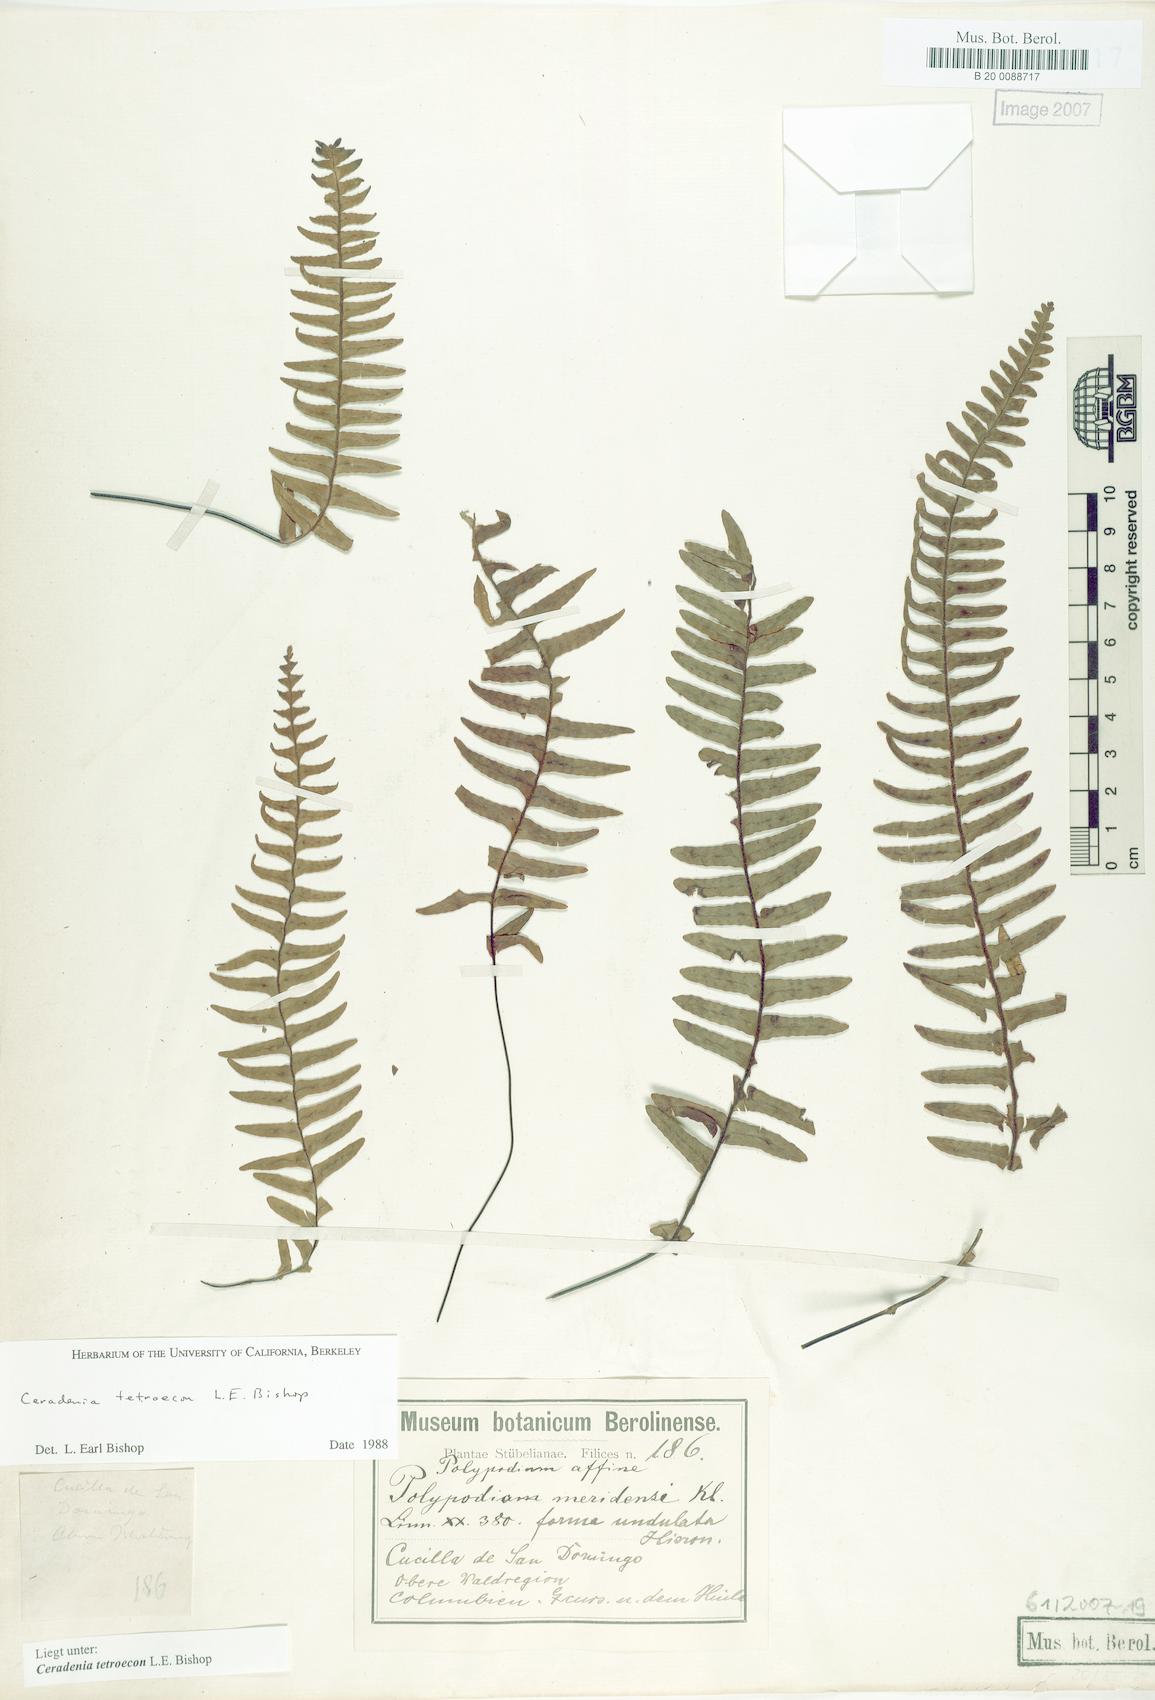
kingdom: Plantae
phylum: Tracheophyta
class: Polypodiopsida
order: Polypodiales
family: Polypodiaceae
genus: Ceradenia
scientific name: Ceradenia
